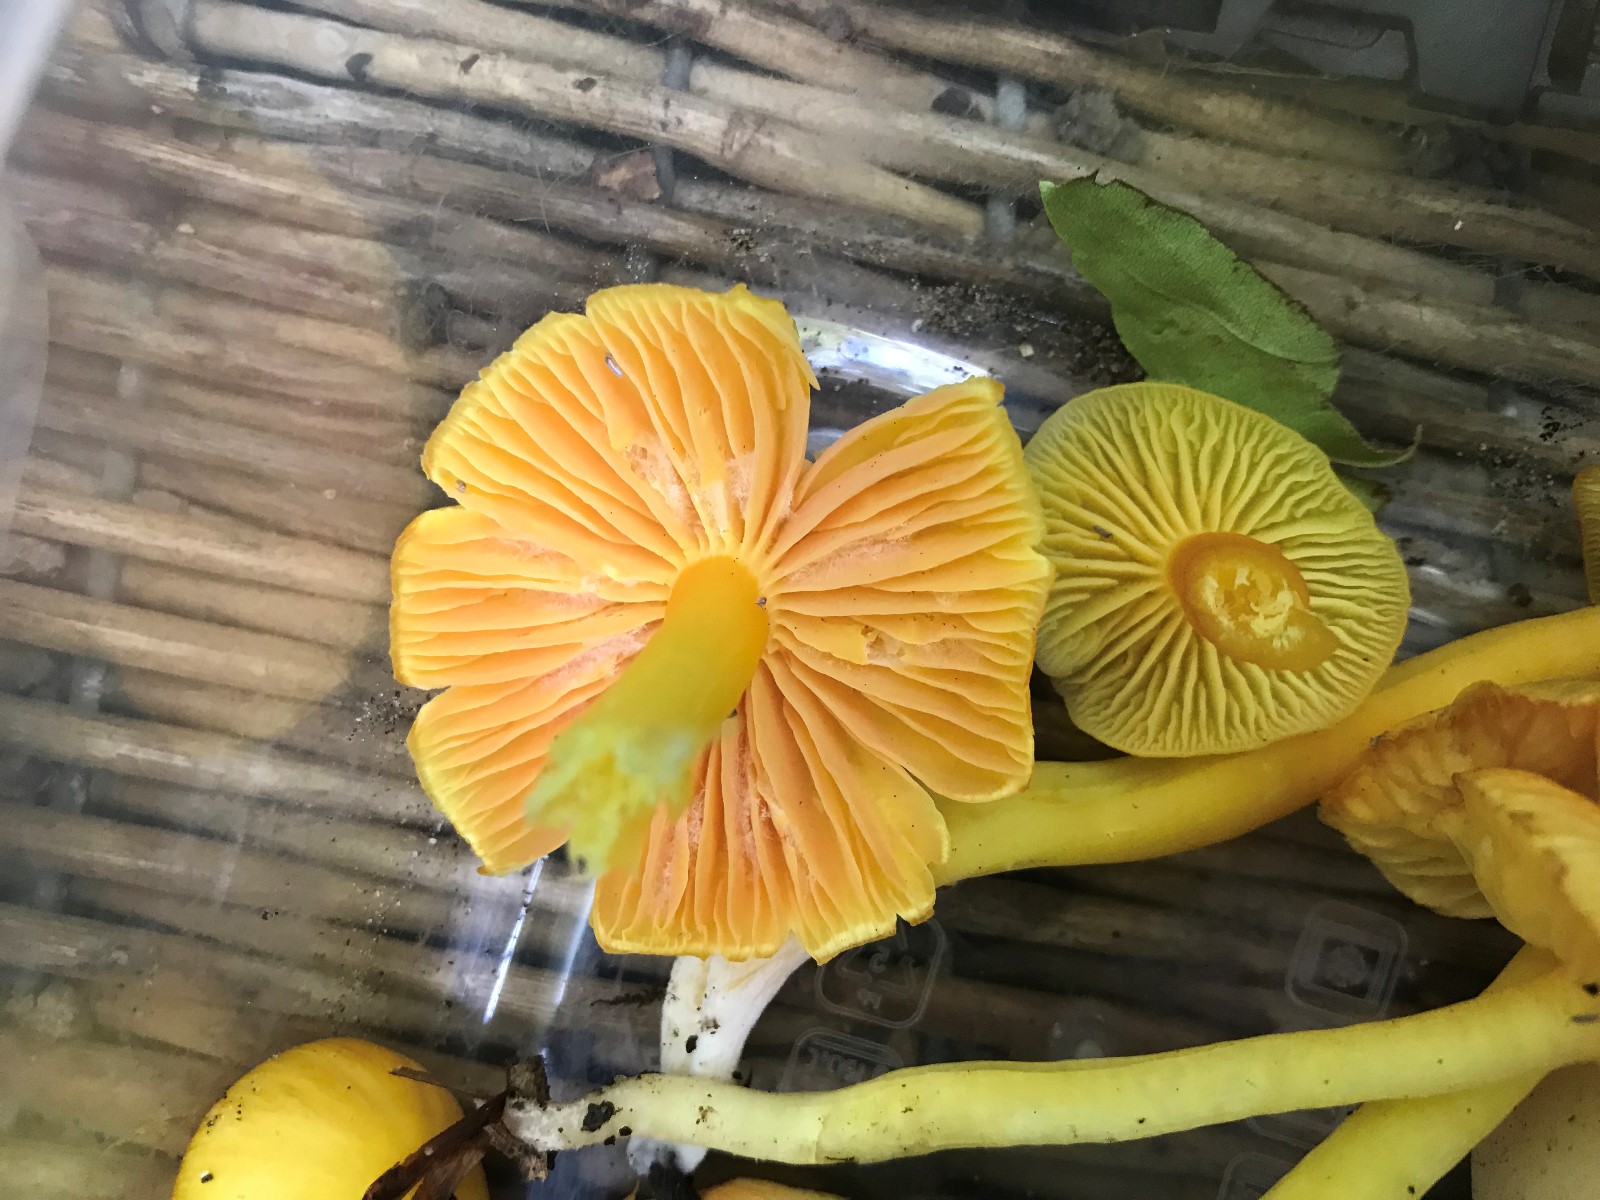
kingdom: Fungi
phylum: Basidiomycota
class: Agaricomycetes
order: Agaricales
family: Hygrophoraceae
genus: Hygrocybe
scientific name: Hygrocybe quieta
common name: tæge-vokshat
